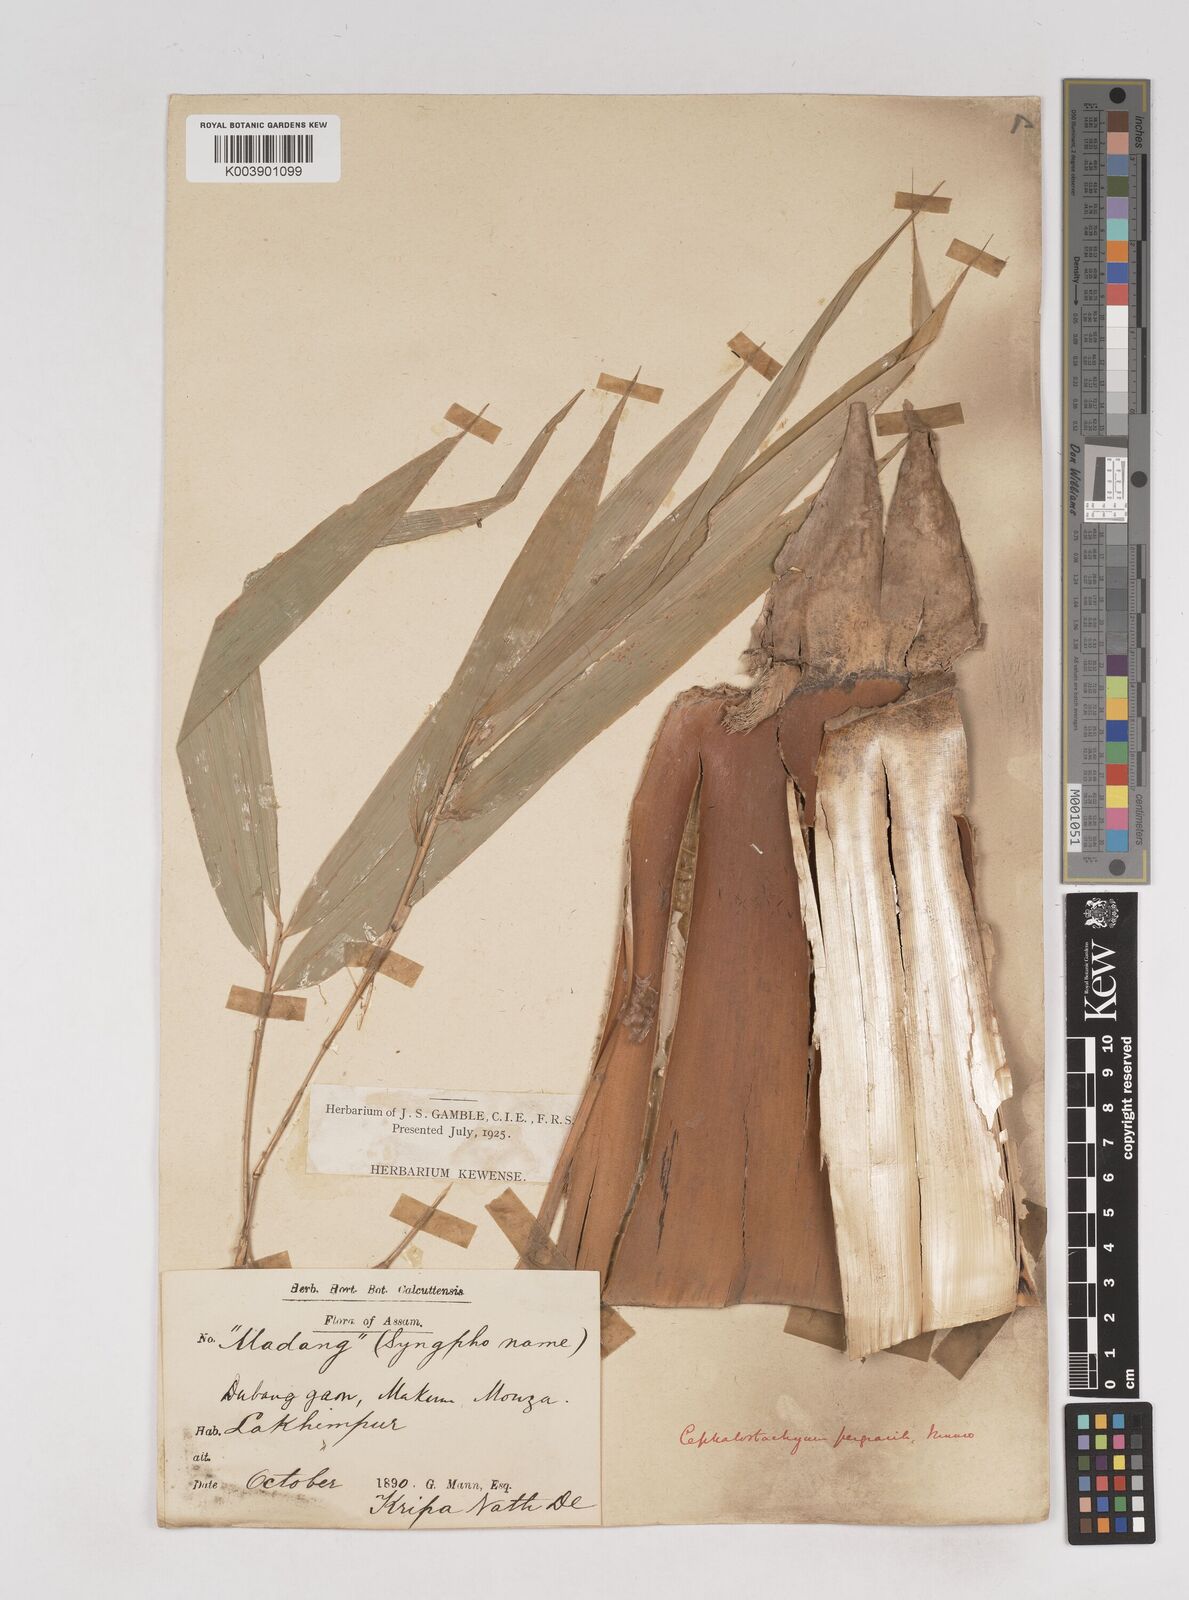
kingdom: Plantae
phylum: Tracheophyta
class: Liliopsida
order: Poales
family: Poaceae
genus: Schizostachyum
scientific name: Schizostachyum pergracile
